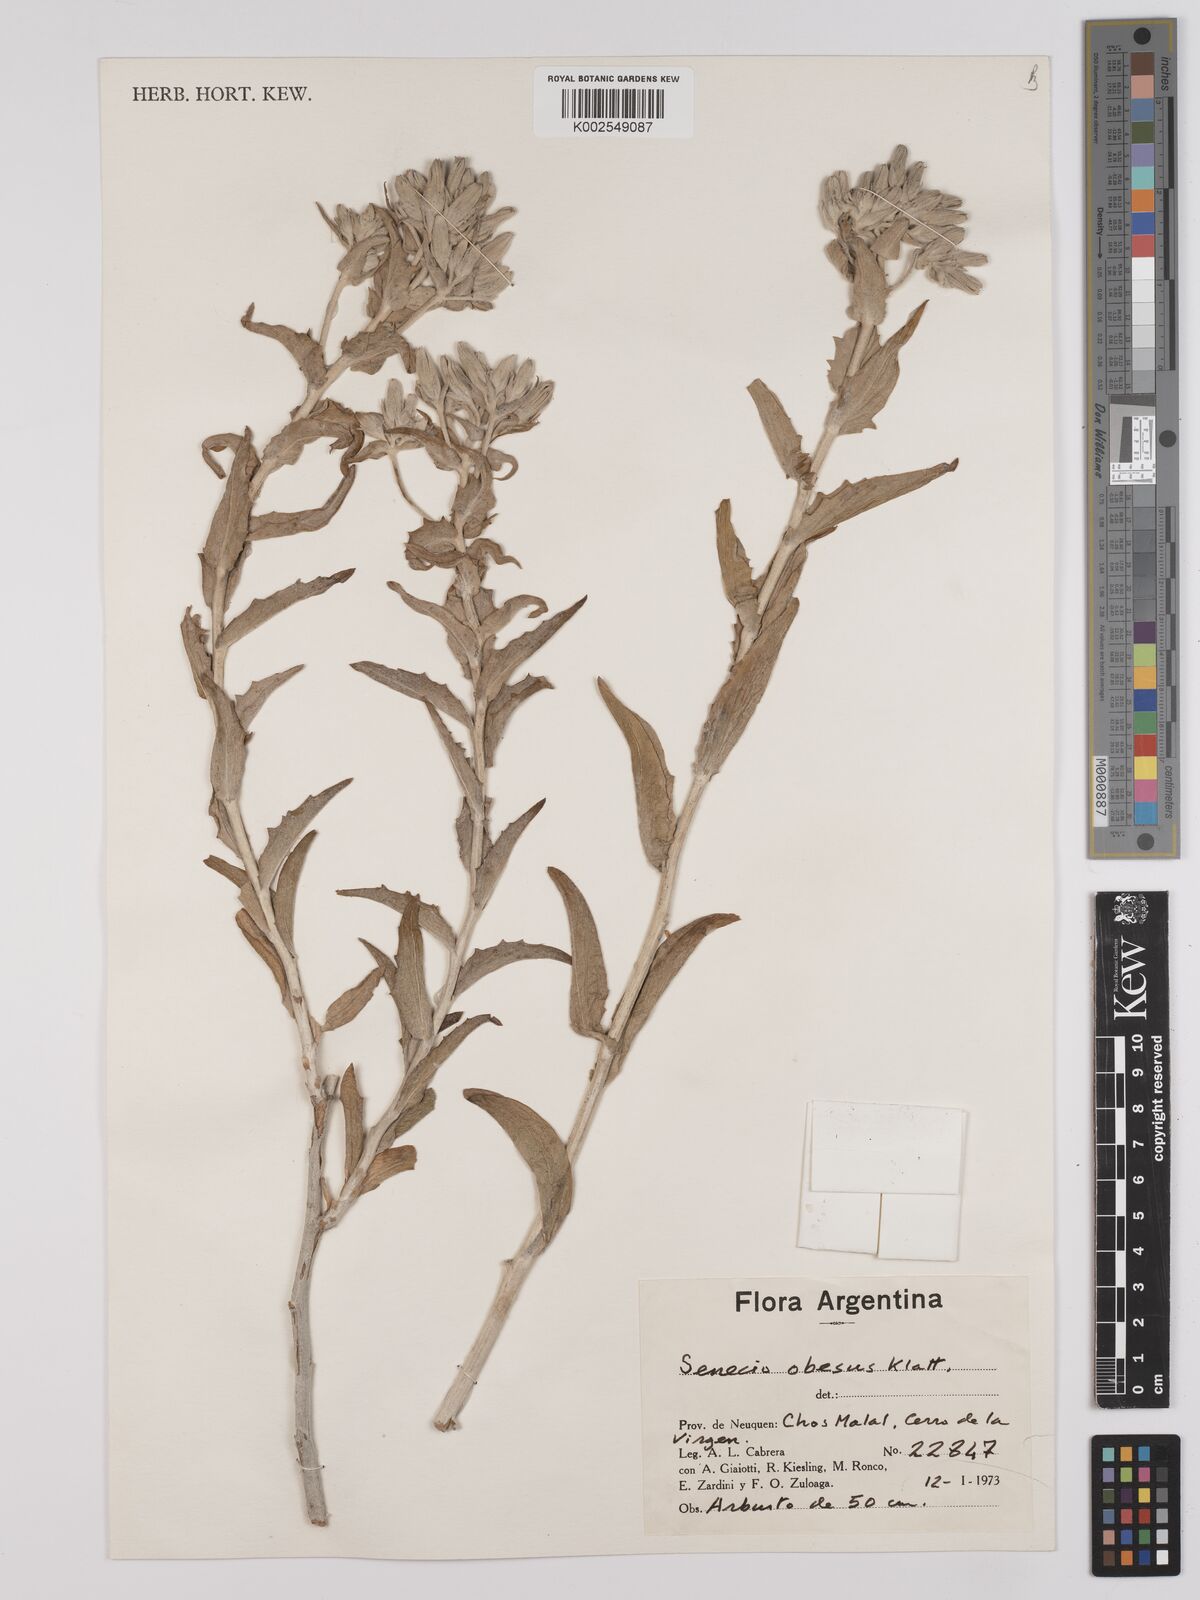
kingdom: Plantae
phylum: Tracheophyta
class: Magnoliopsida
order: Asterales
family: Asteraceae
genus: Senecio
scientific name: Senecio obesus
